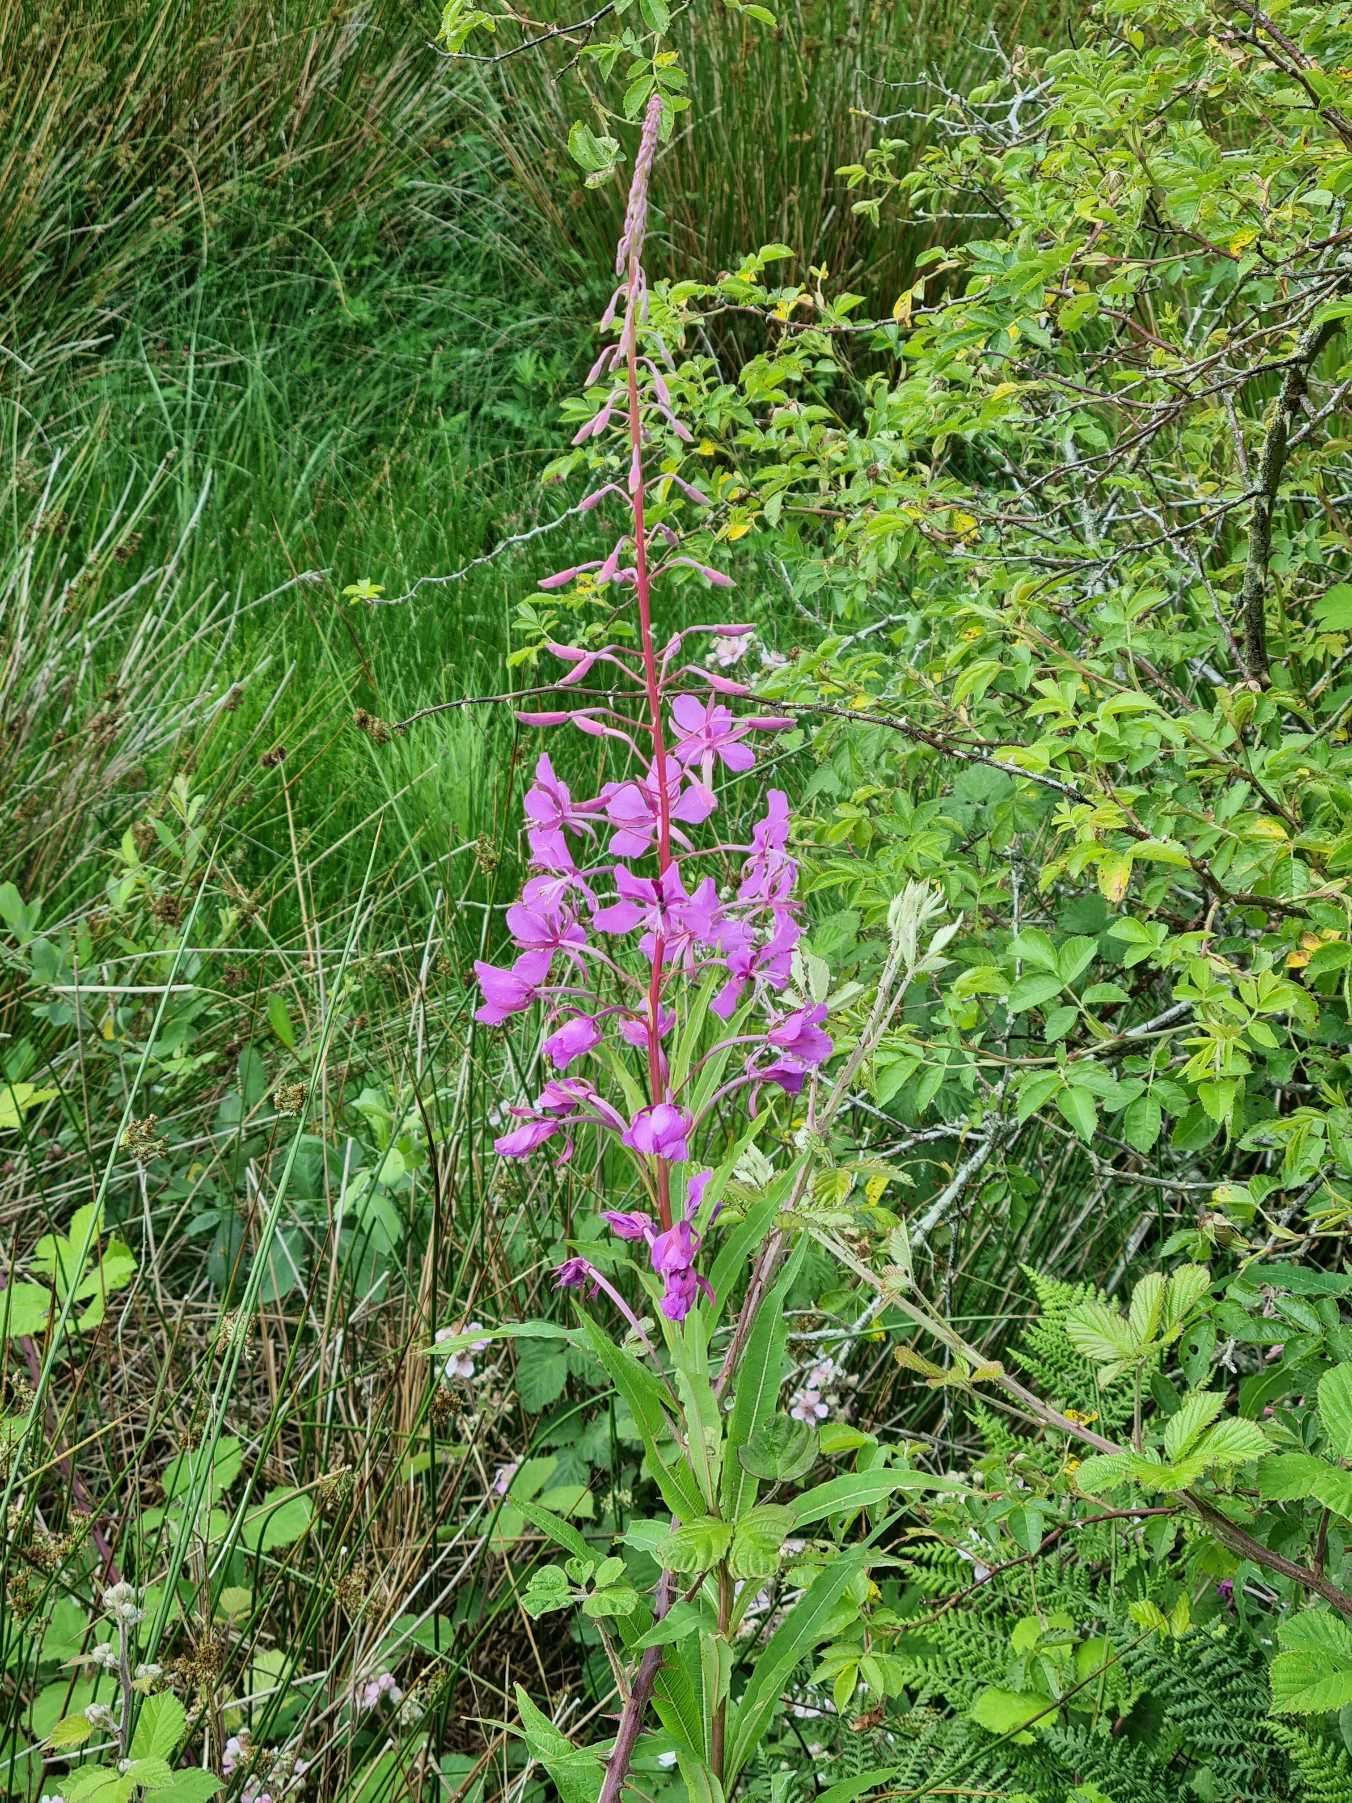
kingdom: Plantae
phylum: Tracheophyta
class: Magnoliopsida
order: Myrtales
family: Onagraceae
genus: Chamaenerion
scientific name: Chamaenerion angustifolium
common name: Gederams
